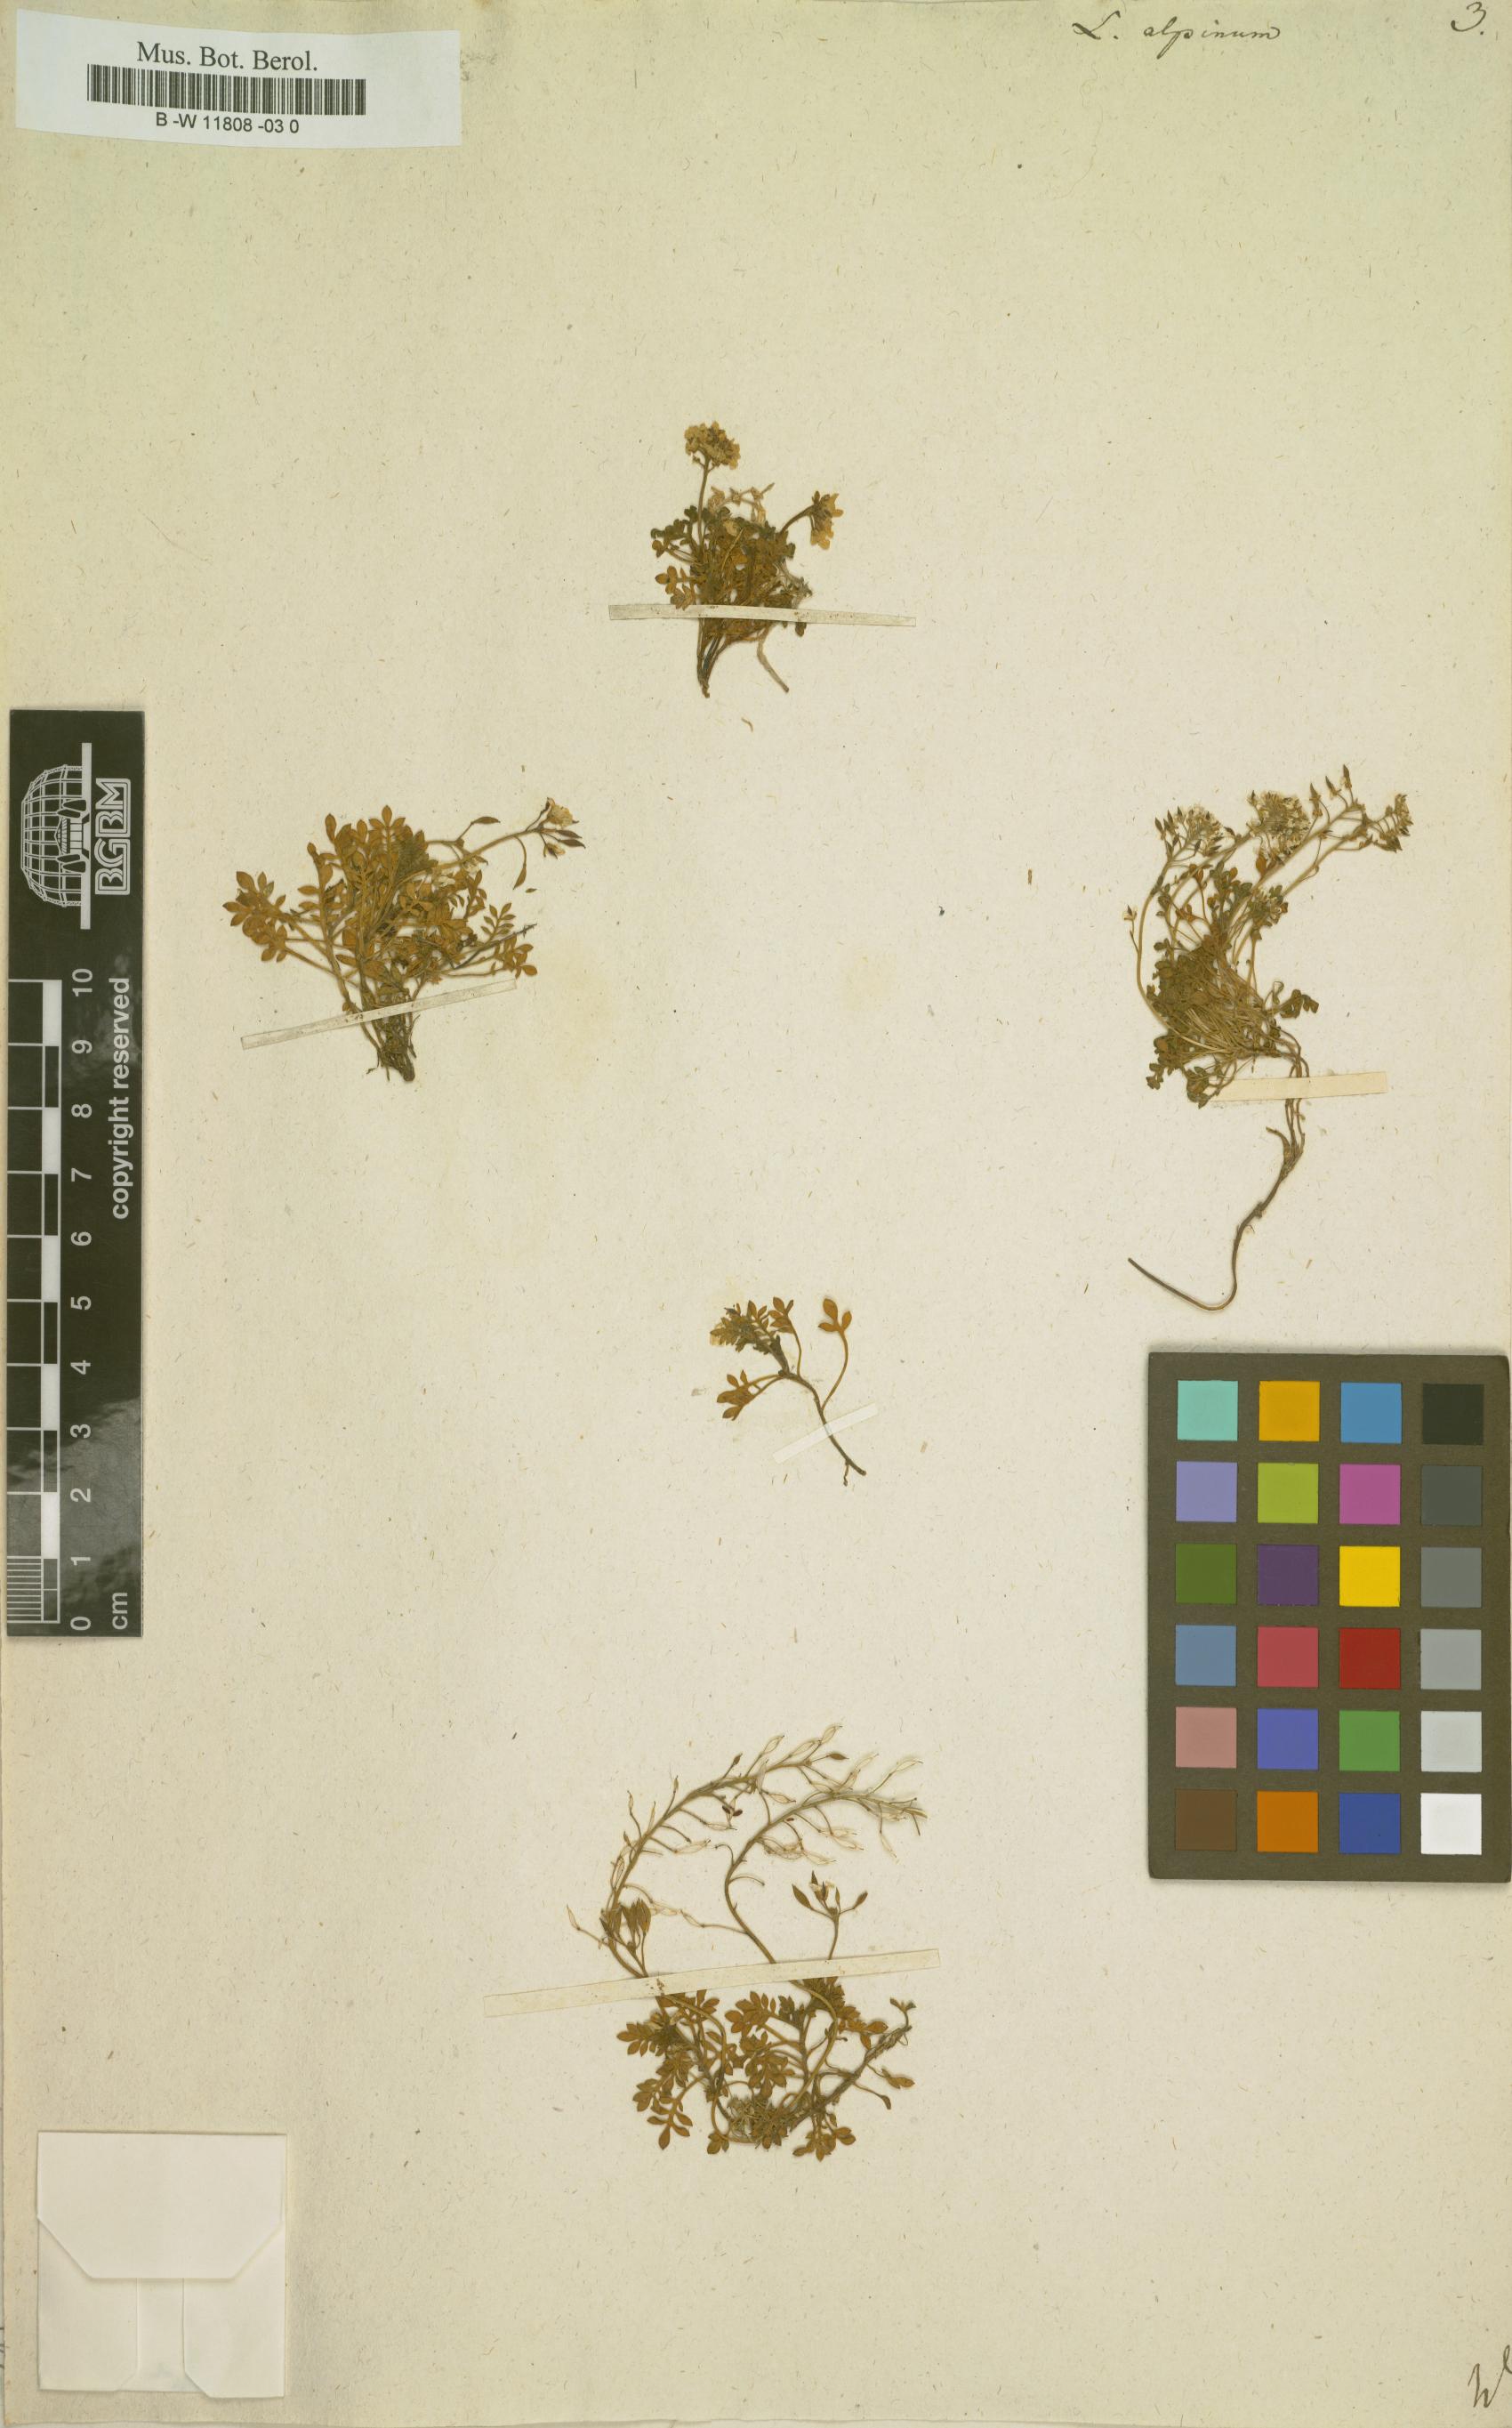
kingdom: Plantae
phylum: Tracheophyta
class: Magnoliopsida
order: Brassicales
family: Brassicaceae
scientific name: Brassicaceae
